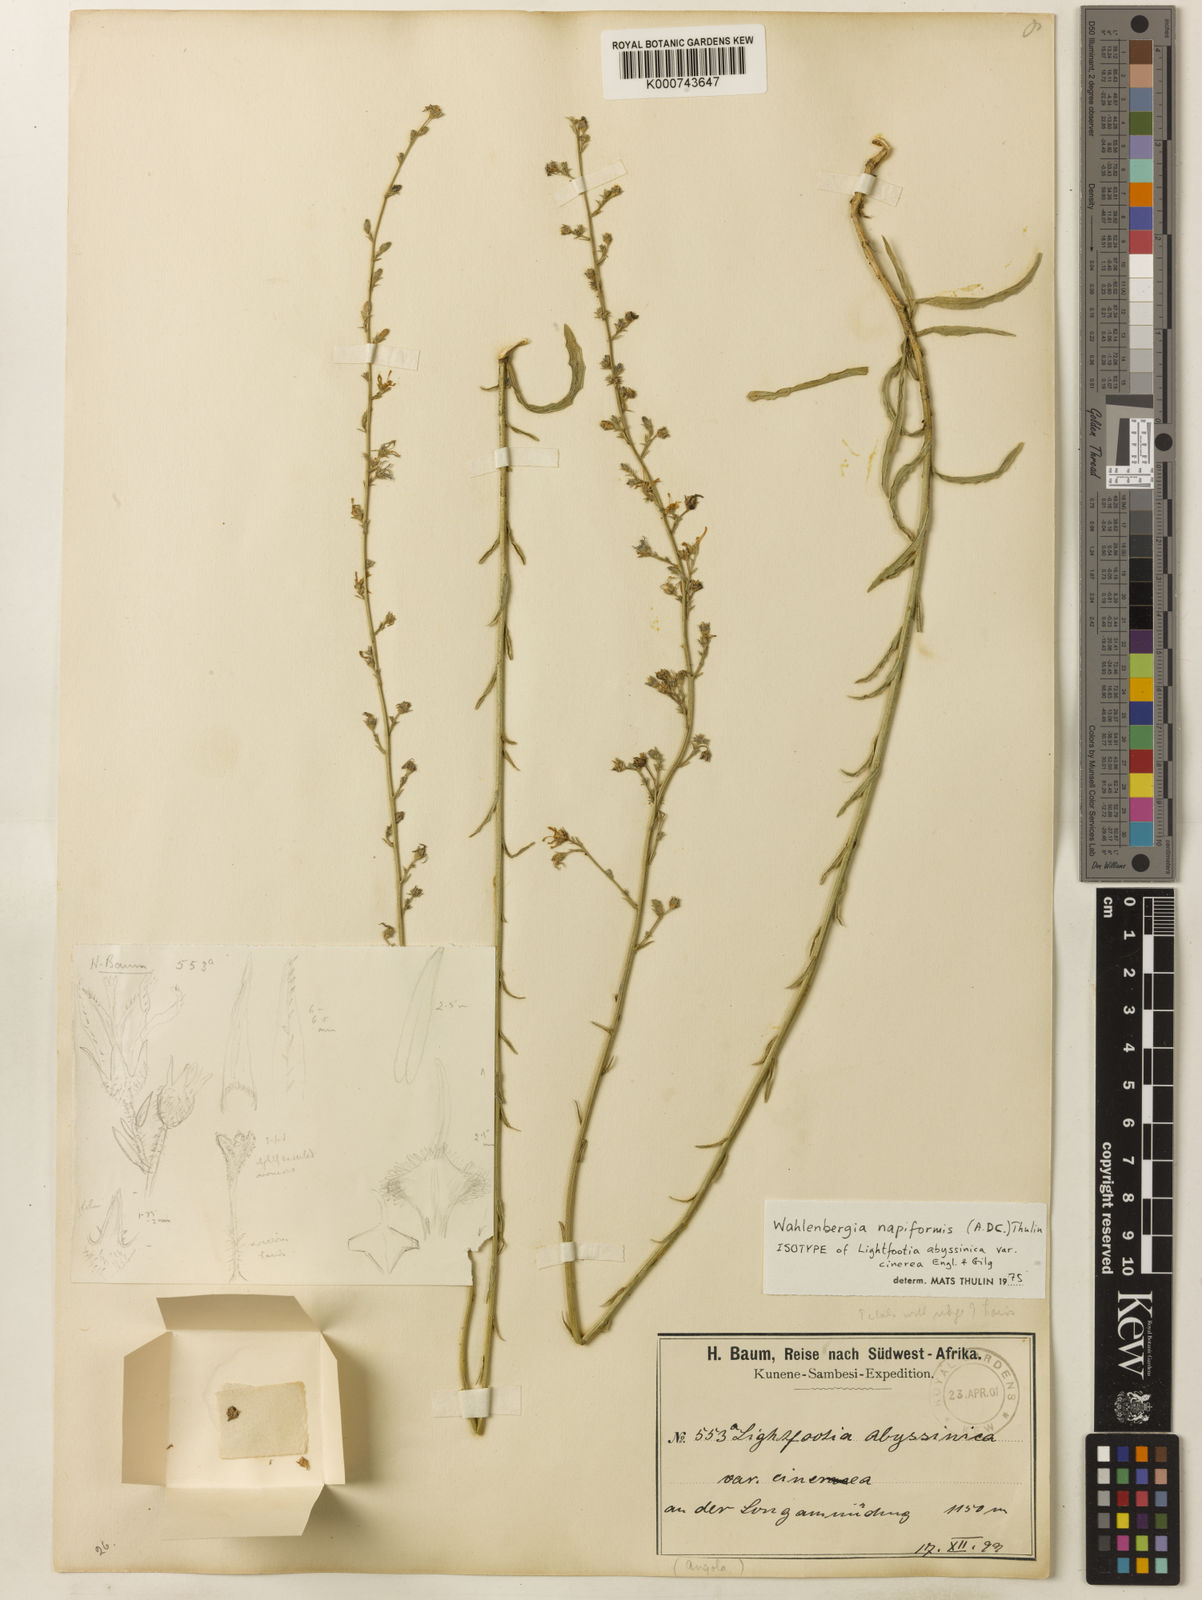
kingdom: Plantae
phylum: Tracheophyta
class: Magnoliopsida
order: Asterales
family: Campanulaceae
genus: Wahlenbergia
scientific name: Wahlenbergia napiformis
